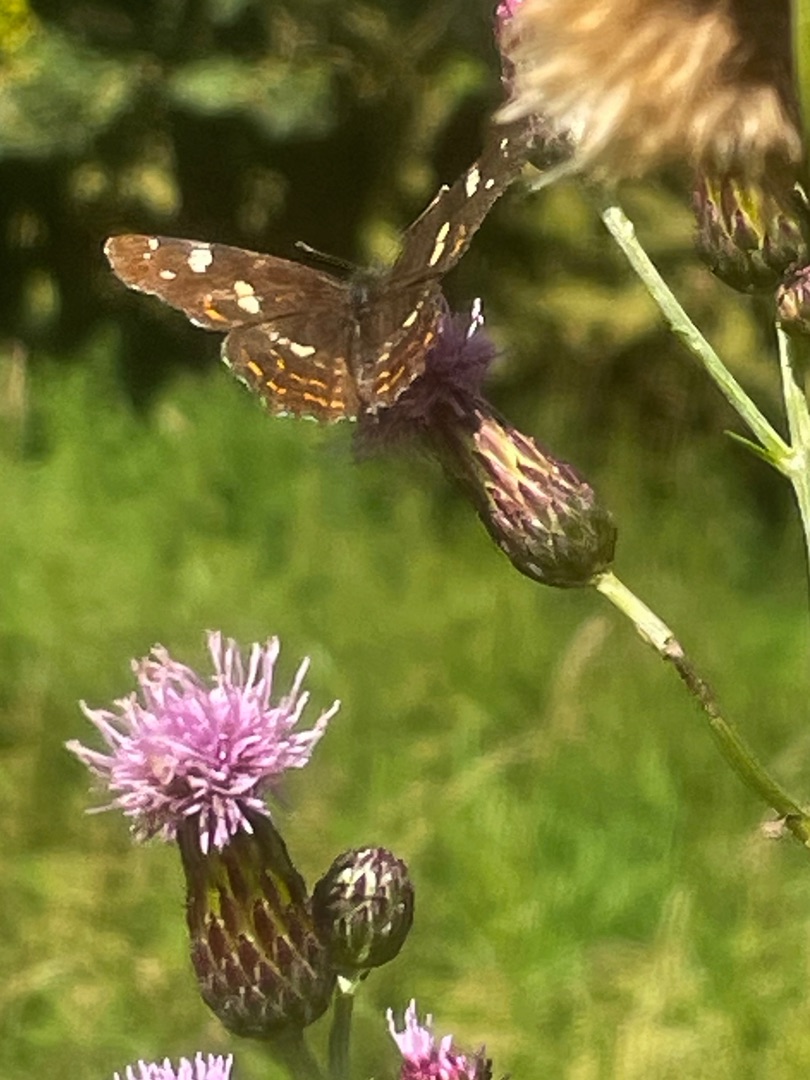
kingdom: Animalia
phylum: Arthropoda
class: Insecta
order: Lepidoptera
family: Nymphalidae
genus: Araschnia
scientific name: Araschnia levana
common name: Nældesommerfugl
